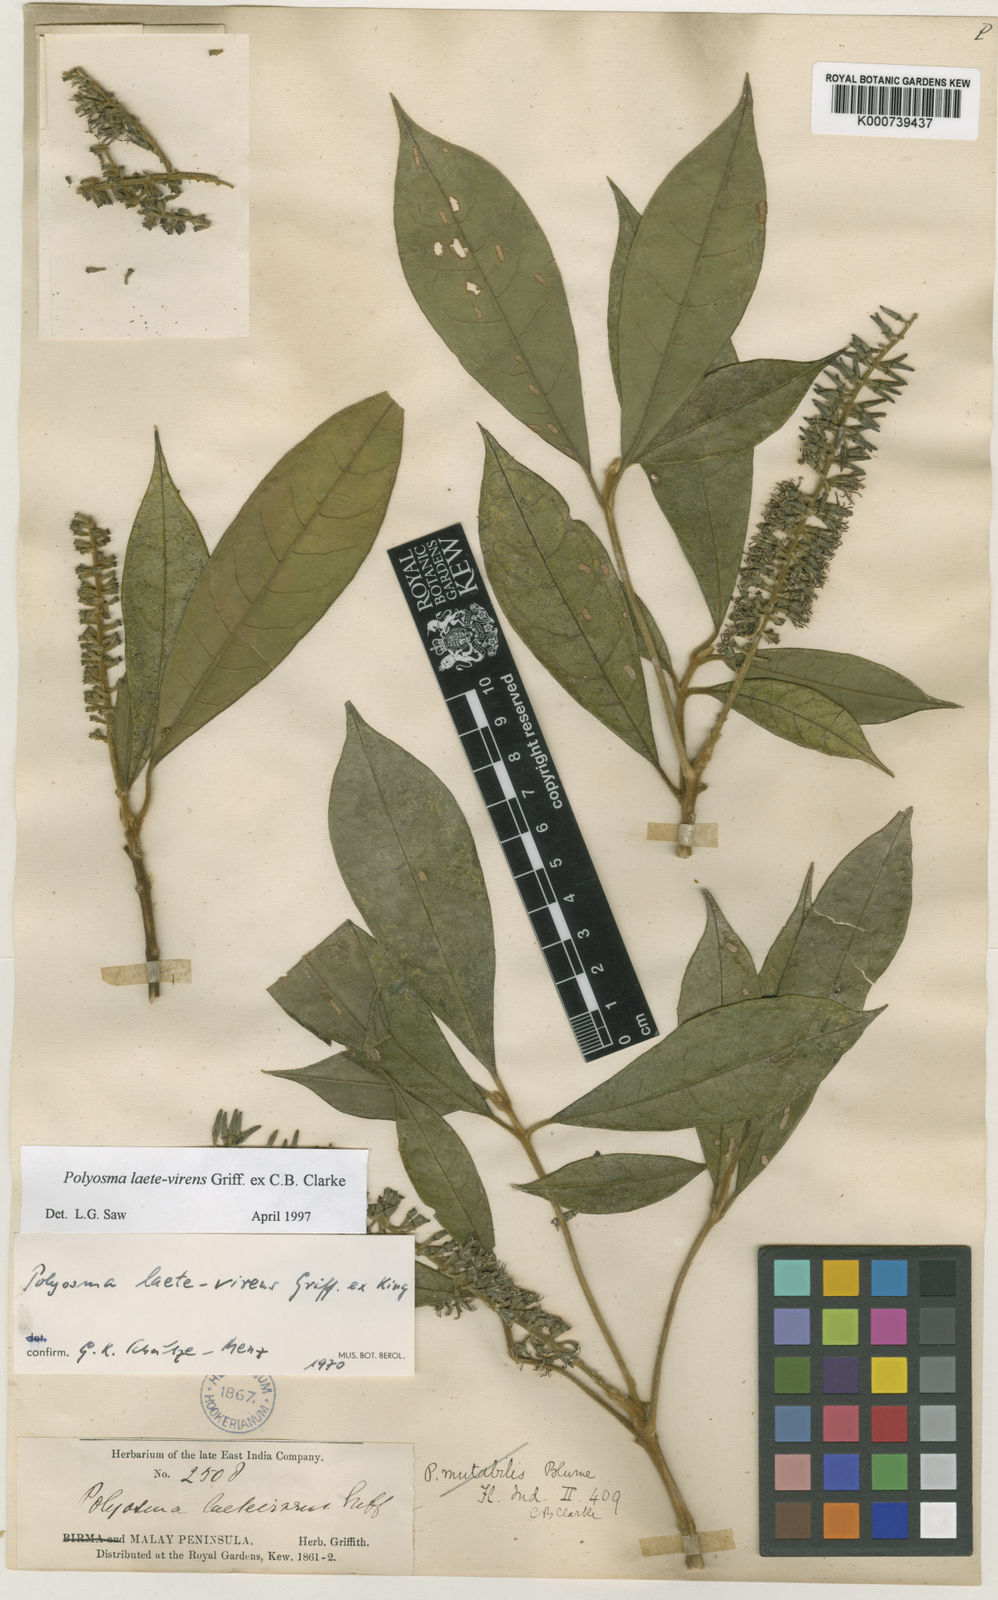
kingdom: Plantae
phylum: Tracheophyta
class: Magnoliopsida
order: Escalloniales
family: Escalloniaceae
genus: Polyosma
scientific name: Polyosma
